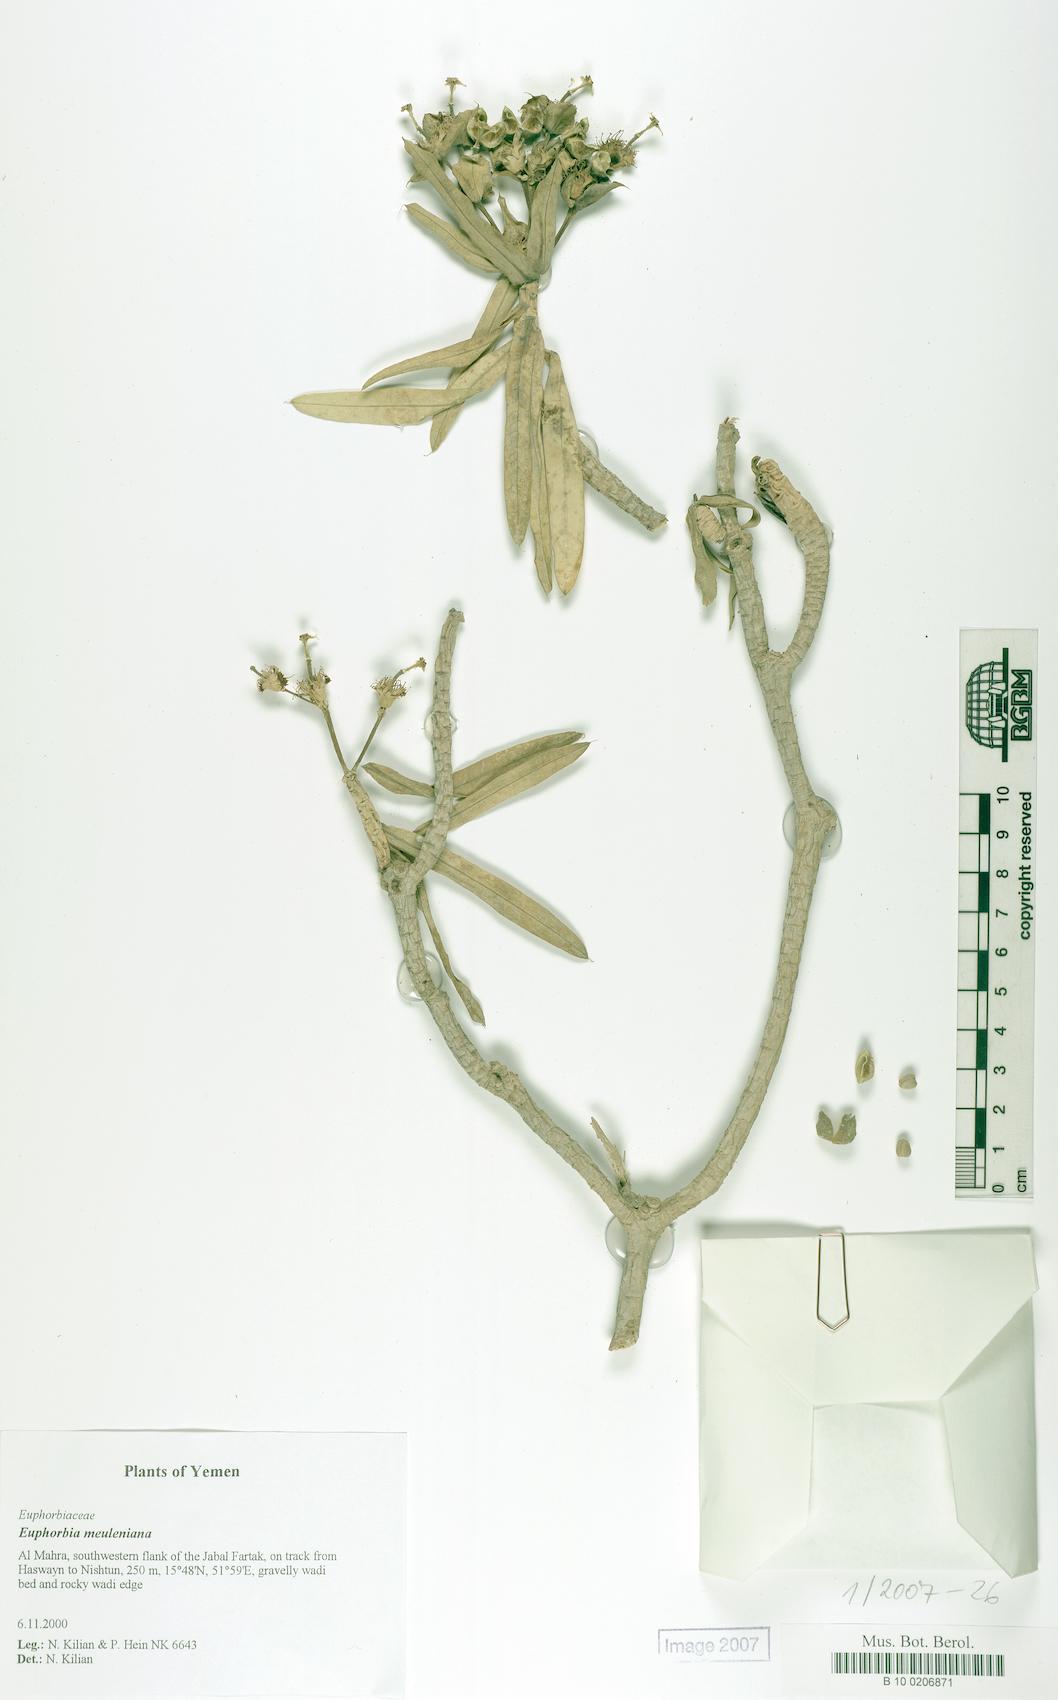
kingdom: Plantae
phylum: Tracheophyta
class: Magnoliopsida
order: Malpighiales
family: Euphorbiaceae
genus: Euphorbia
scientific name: Euphorbia meuleniana
